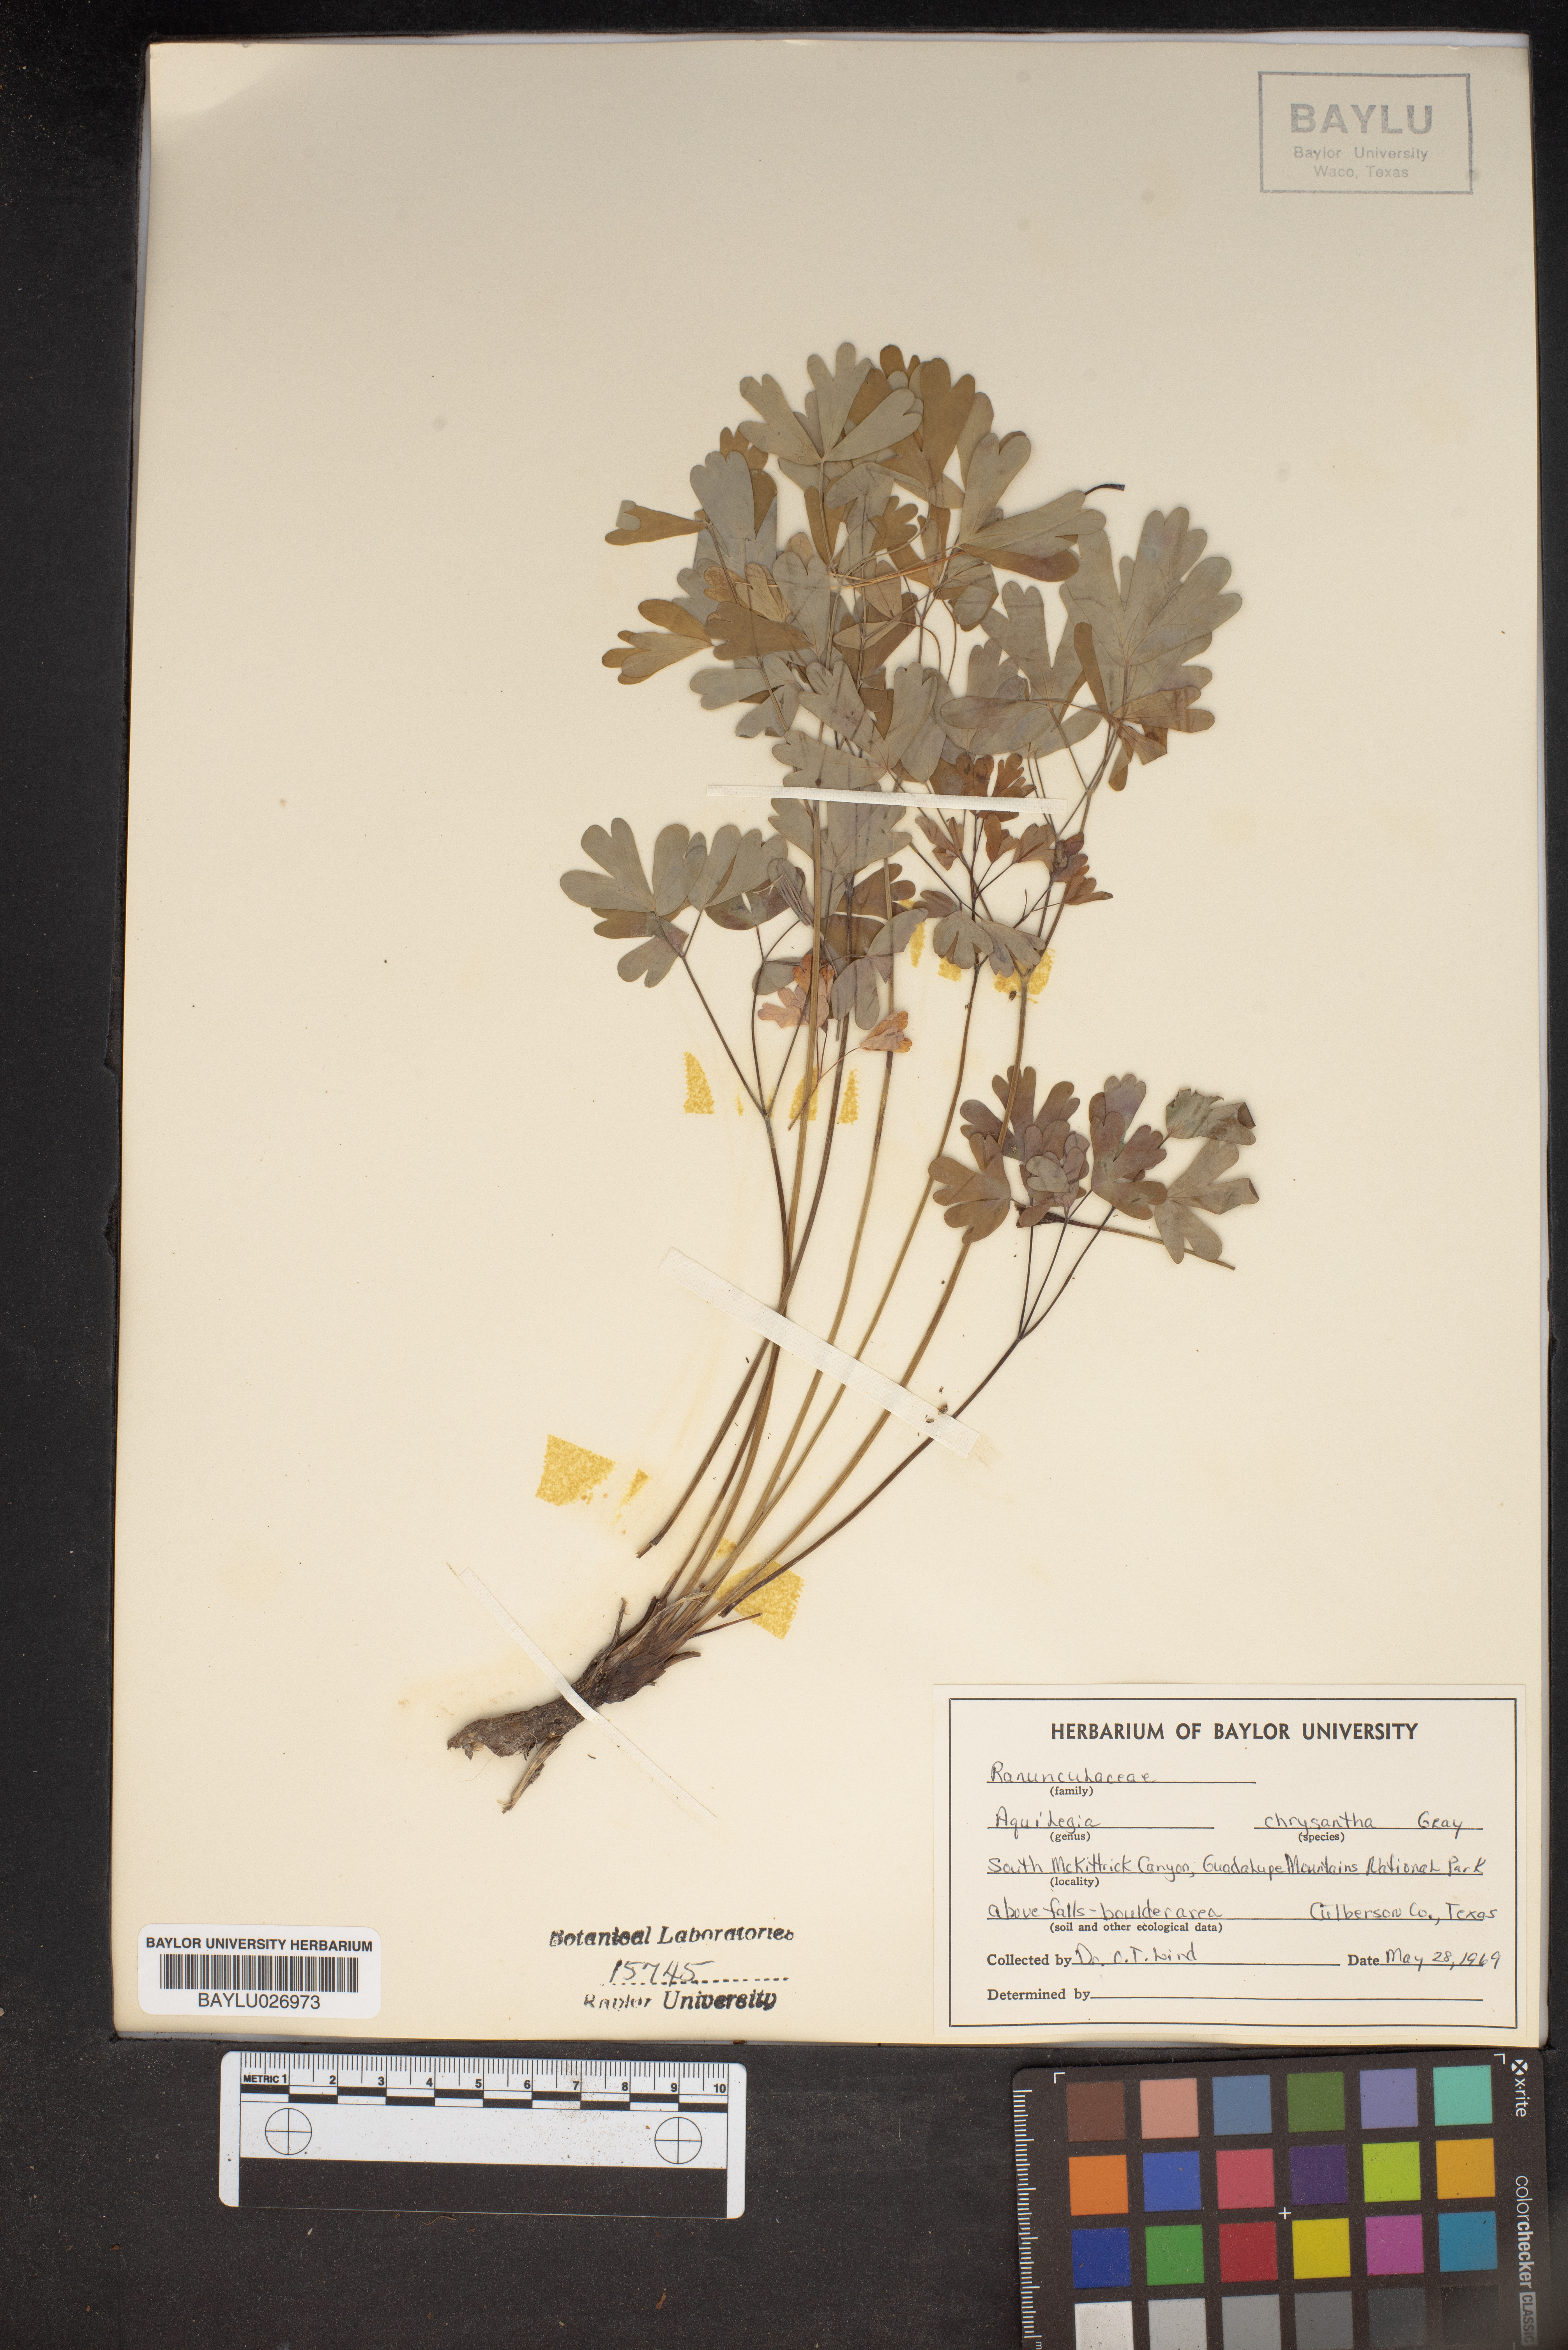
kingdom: Plantae
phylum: Tracheophyta
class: Magnoliopsida
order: Ranunculales
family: Ranunculaceae
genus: Aquilegia
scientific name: Aquilegia chrysantha
